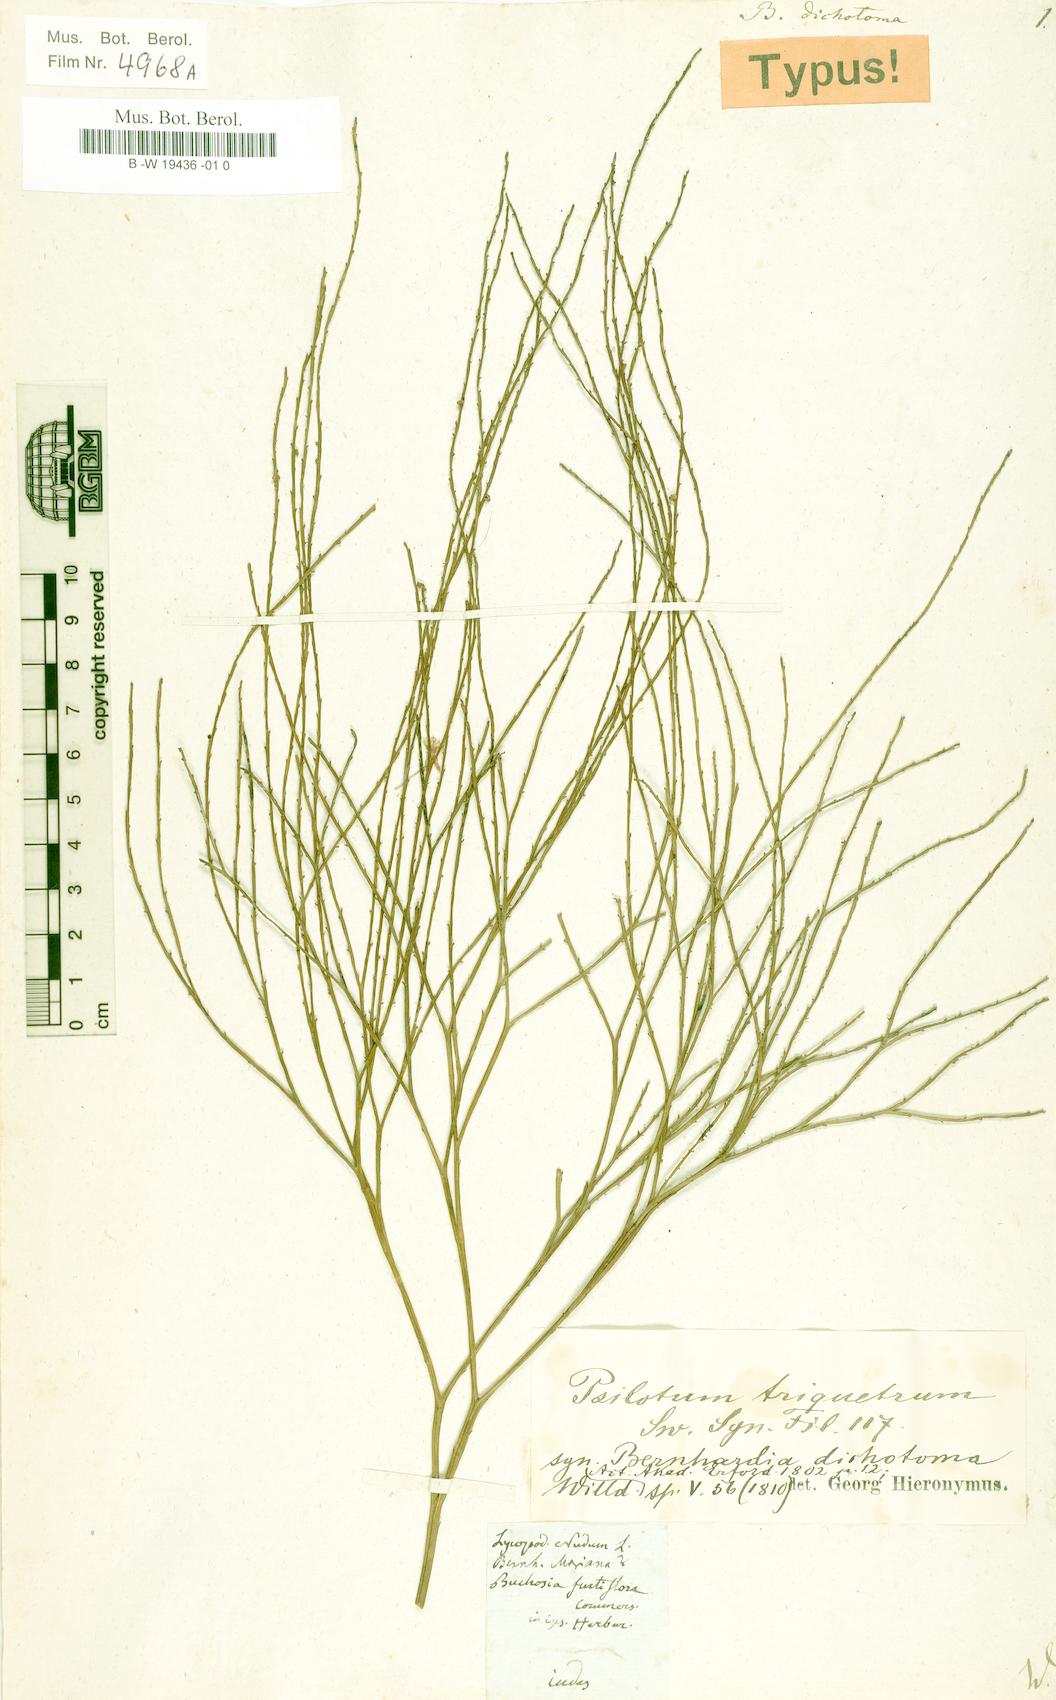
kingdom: Plantae
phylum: Tracheophyta
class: Polypodiopsida
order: Psilotales
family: Psilotaceae
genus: Psilotum
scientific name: Psilotum nudum
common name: Skeleton fork fern
